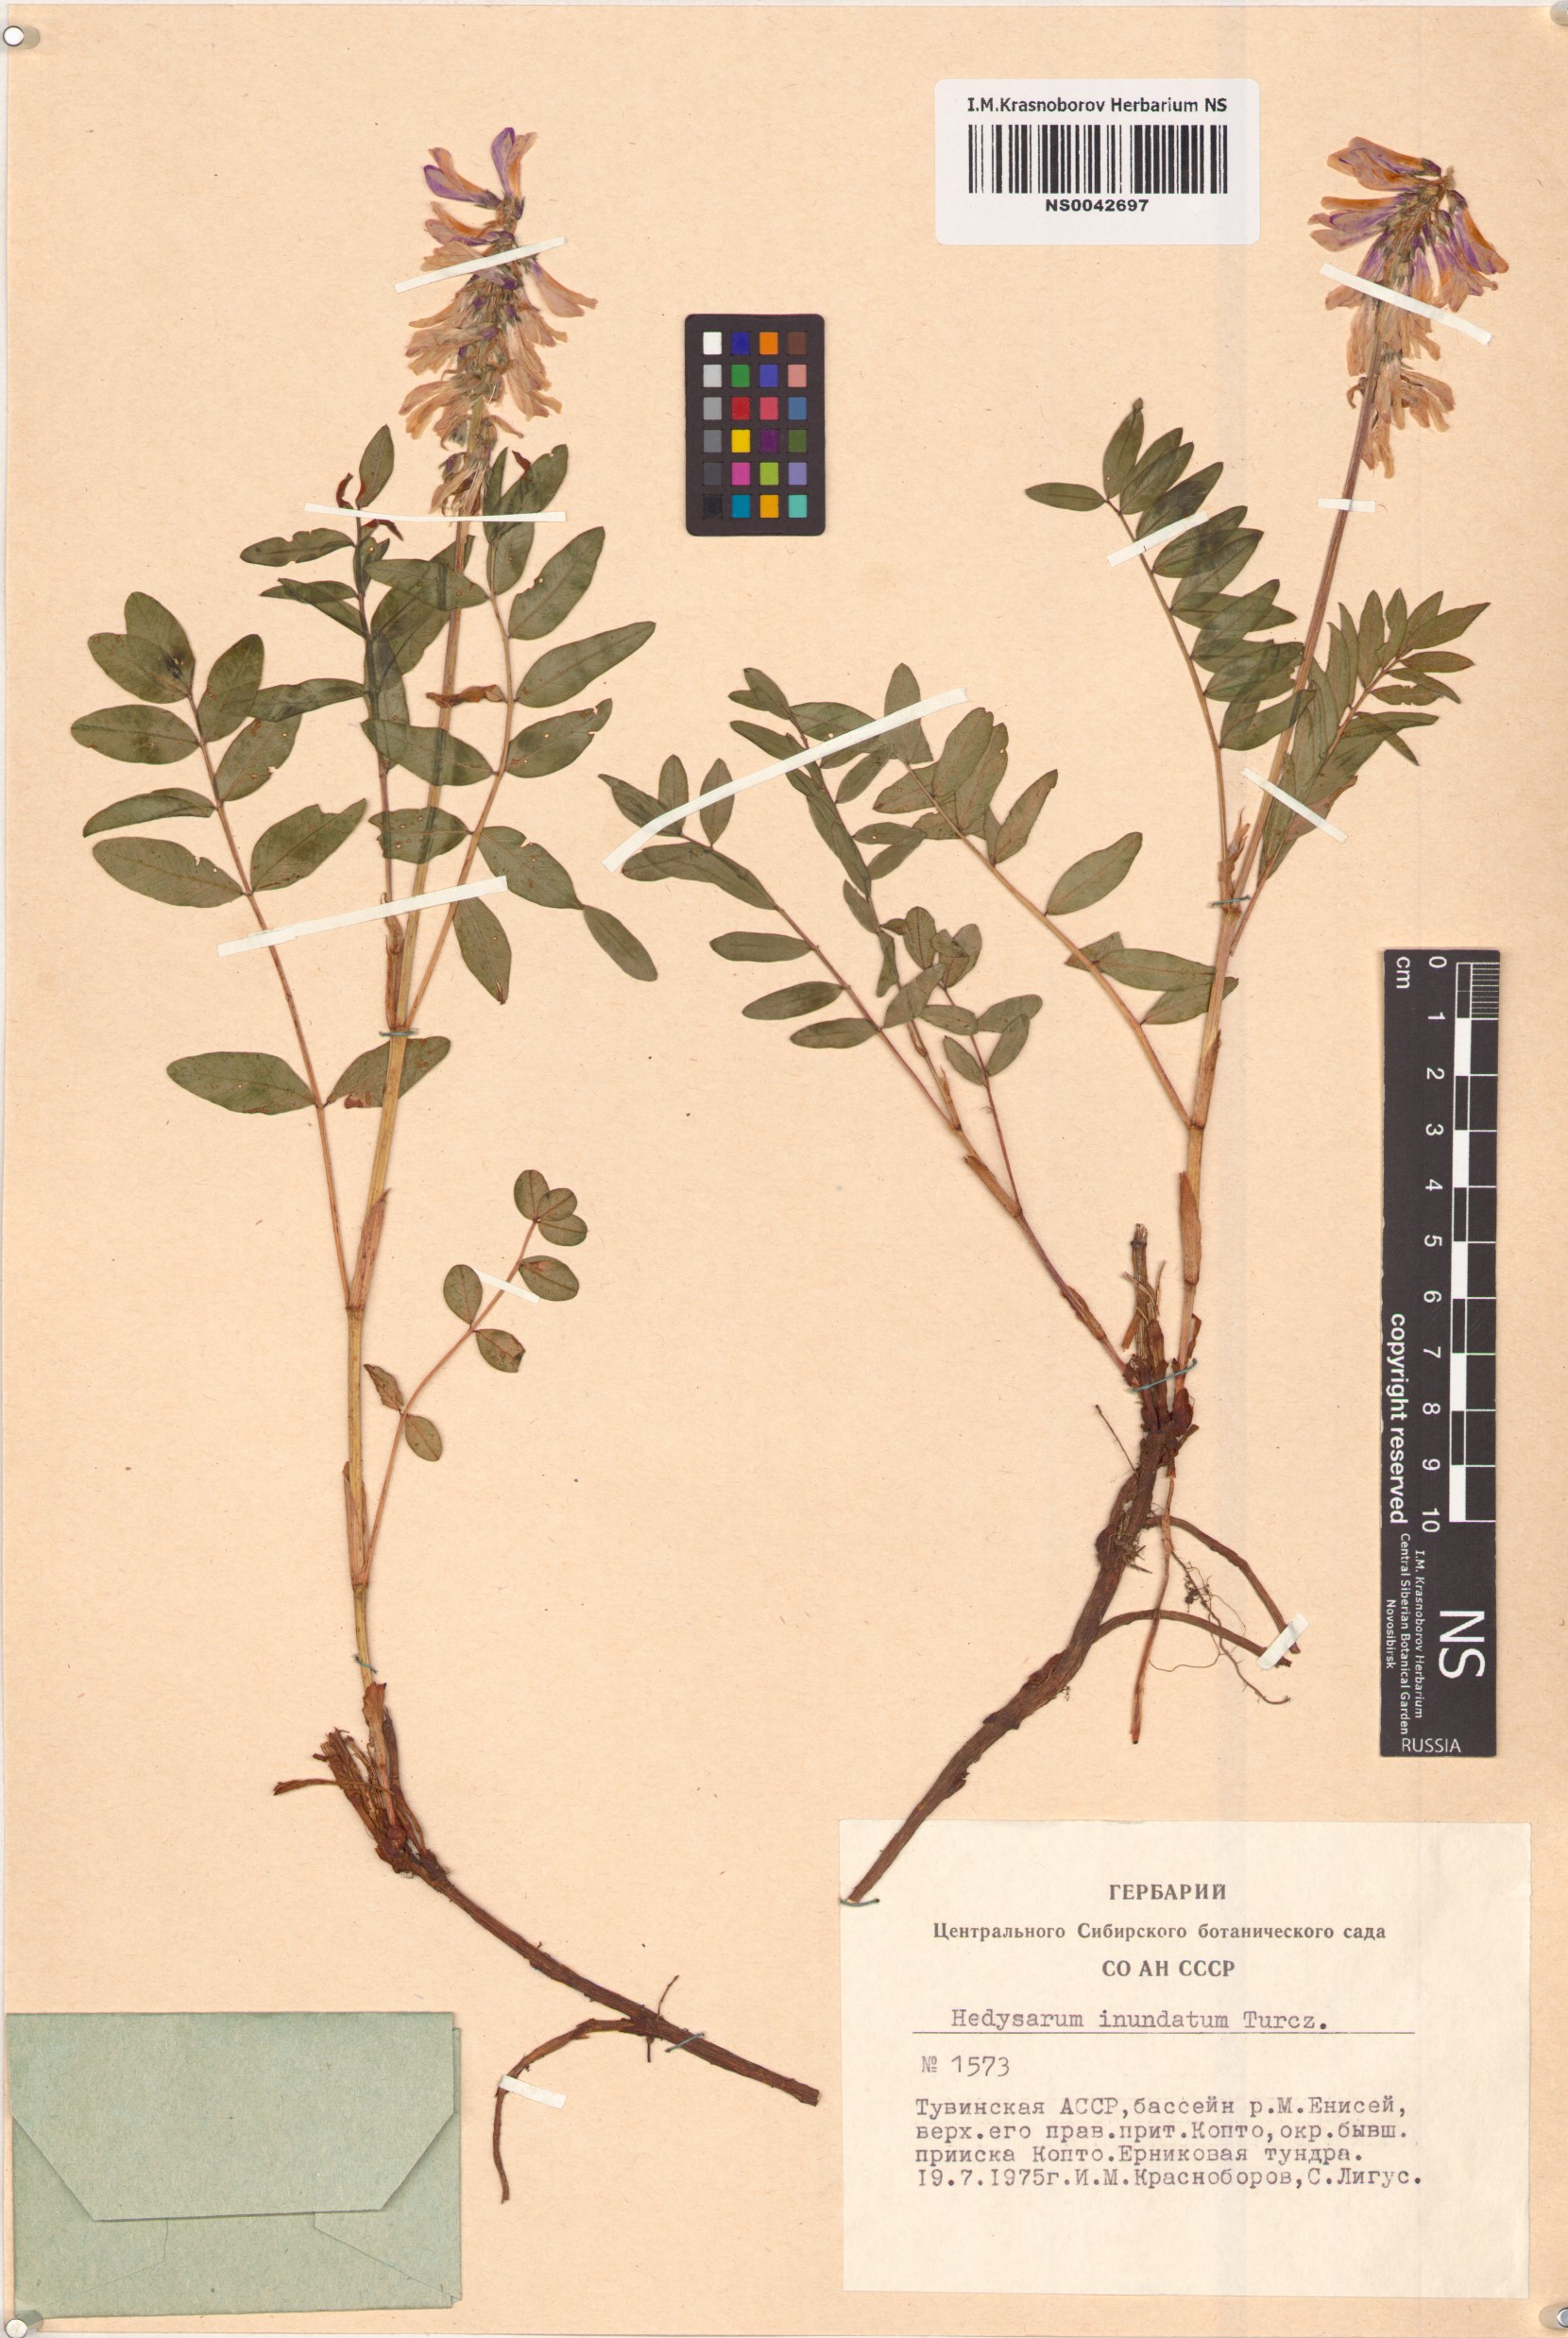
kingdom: Plantae
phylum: Tracheophyta
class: Magnoliopsida
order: Fabales
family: Fabaceae
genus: Hedysarum
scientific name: Hedysarum inundatum
